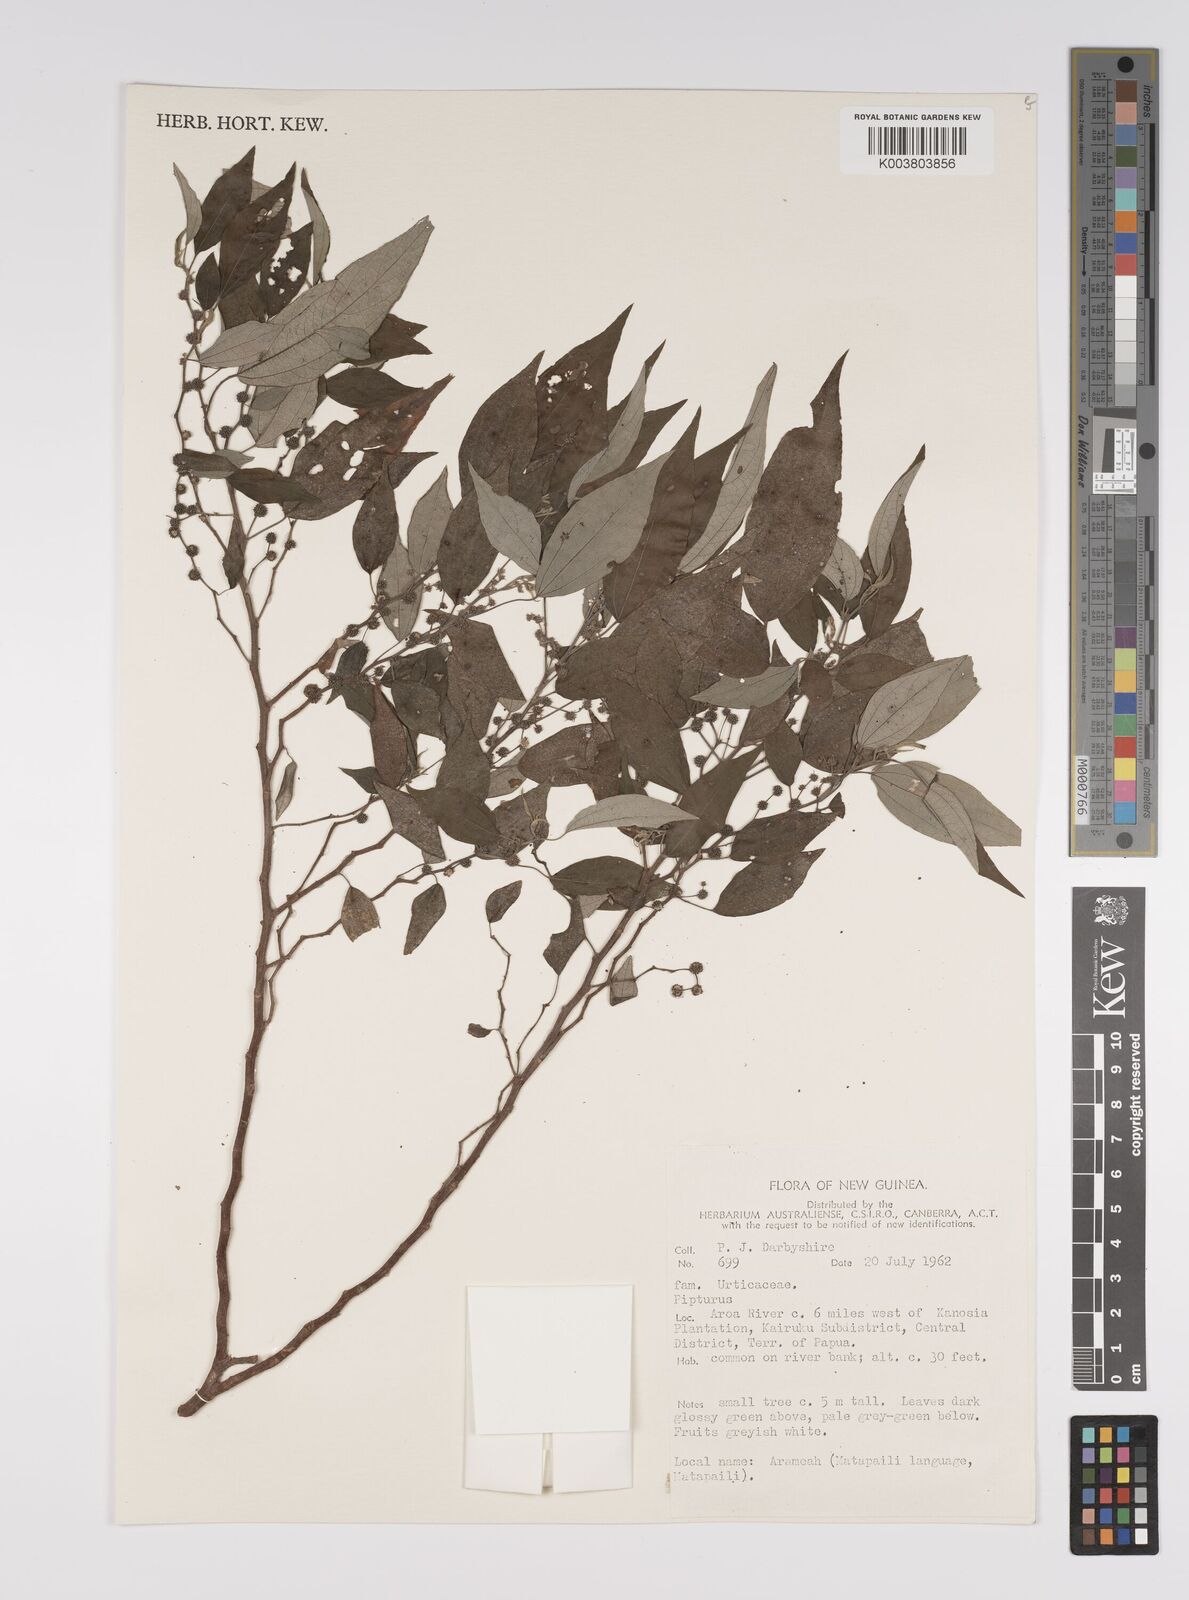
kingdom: Plantae
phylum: Tracheophyta
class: Magnoliopsida
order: Rosales
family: Urticaceae
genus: Pipturus
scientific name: Pipturus argenteus
